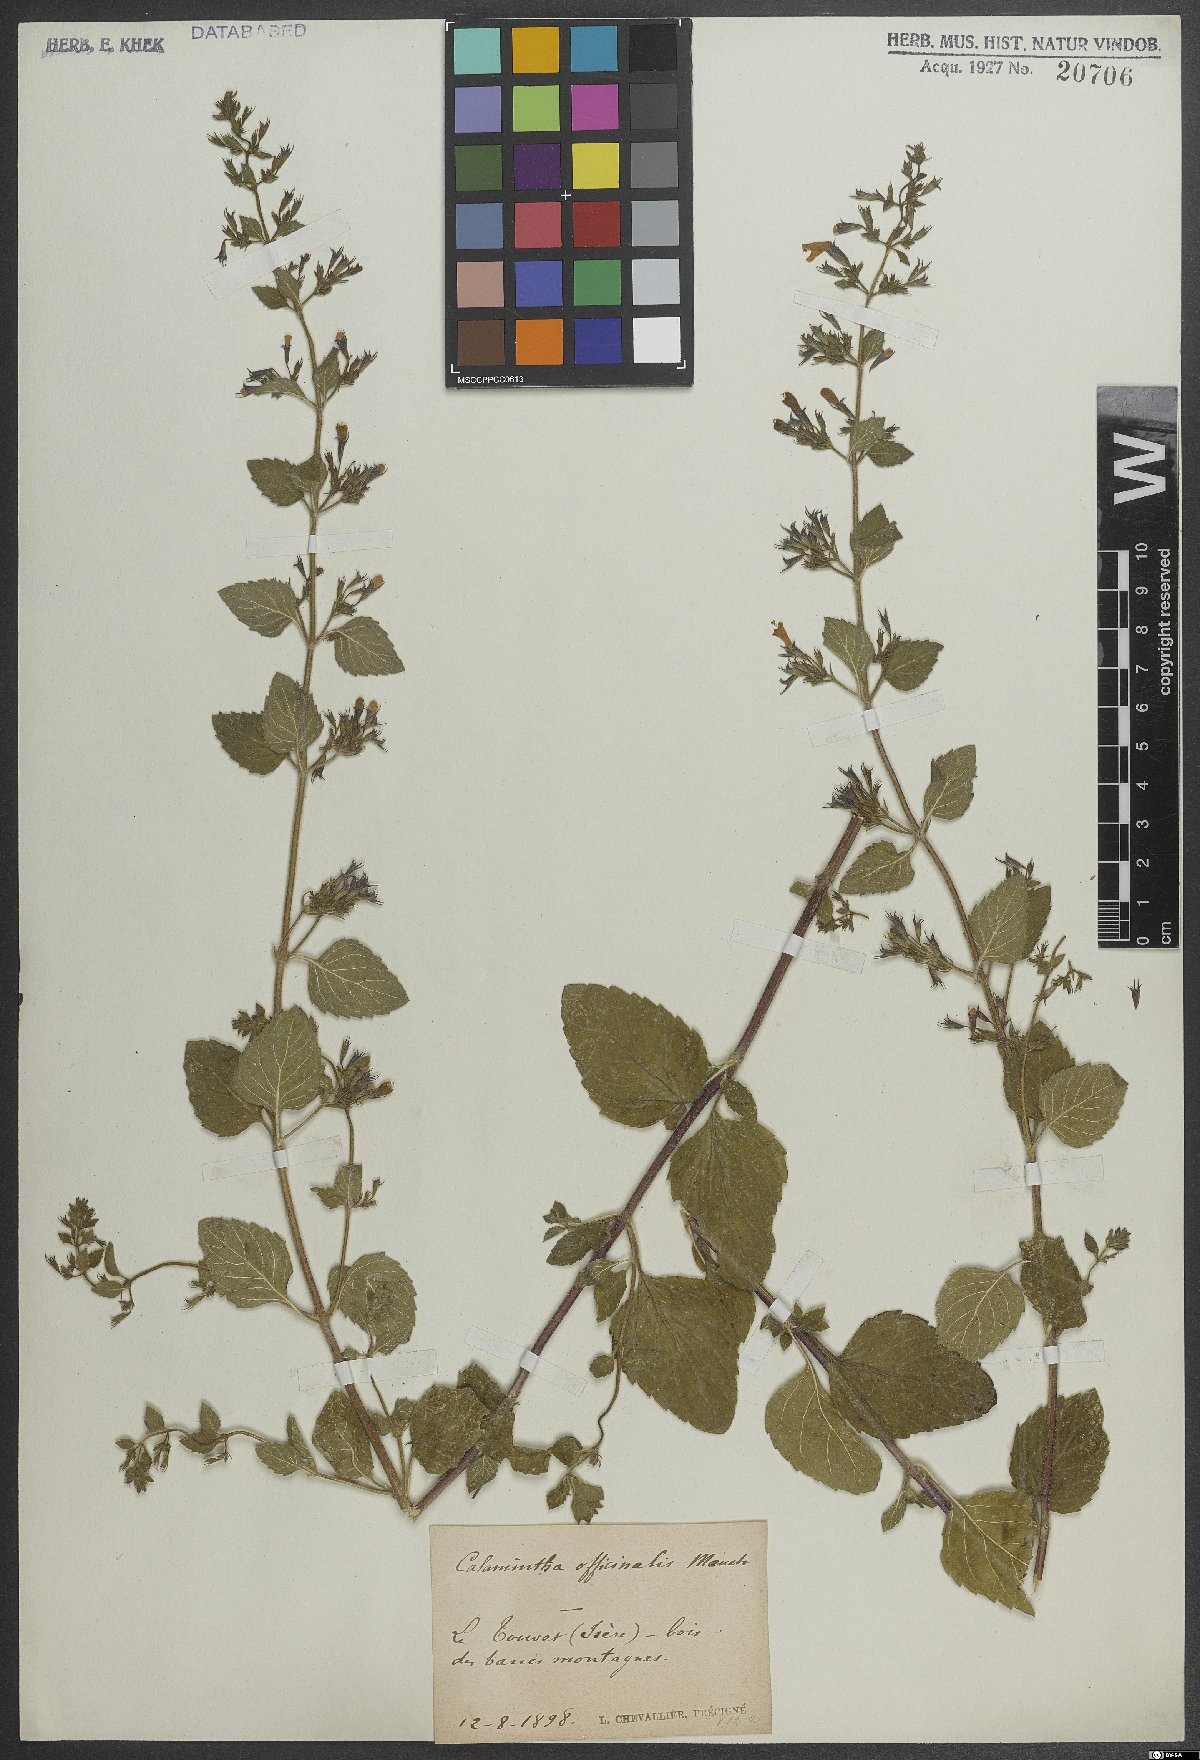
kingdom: Plantae
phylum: Tracheophyta
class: Magnoliopsida
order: Lamiales
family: Lamiaceae
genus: Clinopodium
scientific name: Clinopodium nepeta
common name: Lesser calamint
